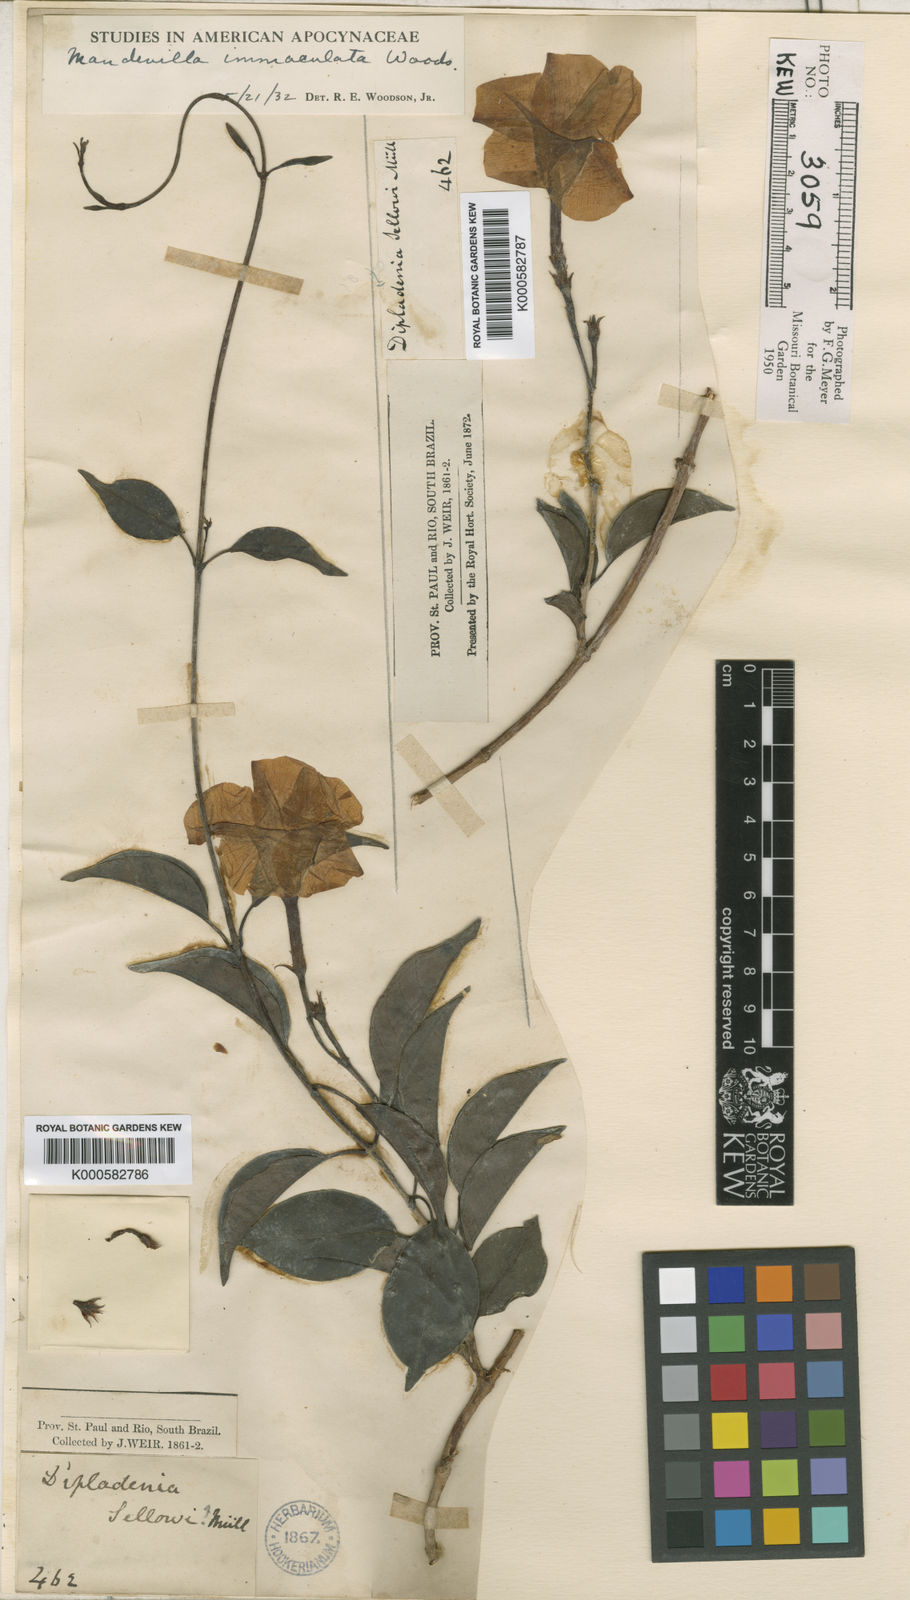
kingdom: Plantae
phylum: Tracheophyta
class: Magnoliopsida
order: Gentianales
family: Apocynaceae
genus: Mandevilla
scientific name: Mandevilla immaculata
